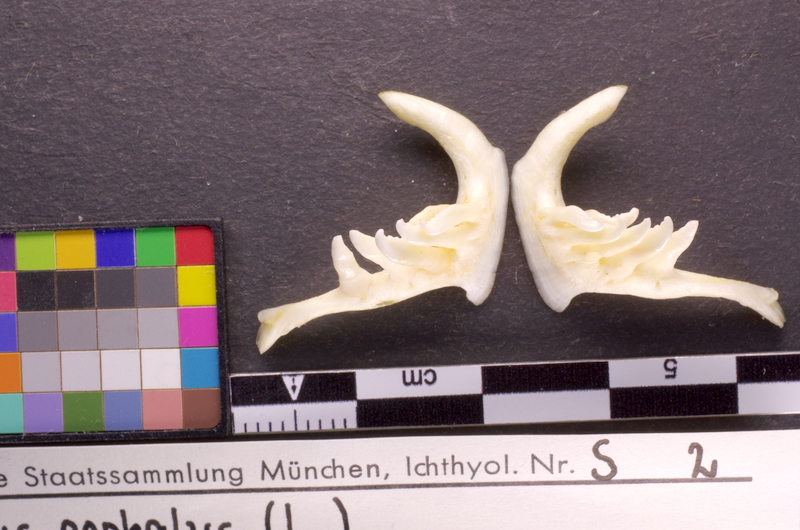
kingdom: Animalia
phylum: Chordata
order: Cypriniformes
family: Cyprinidae
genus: Squalius
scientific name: Squalius cephalus
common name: Chub
